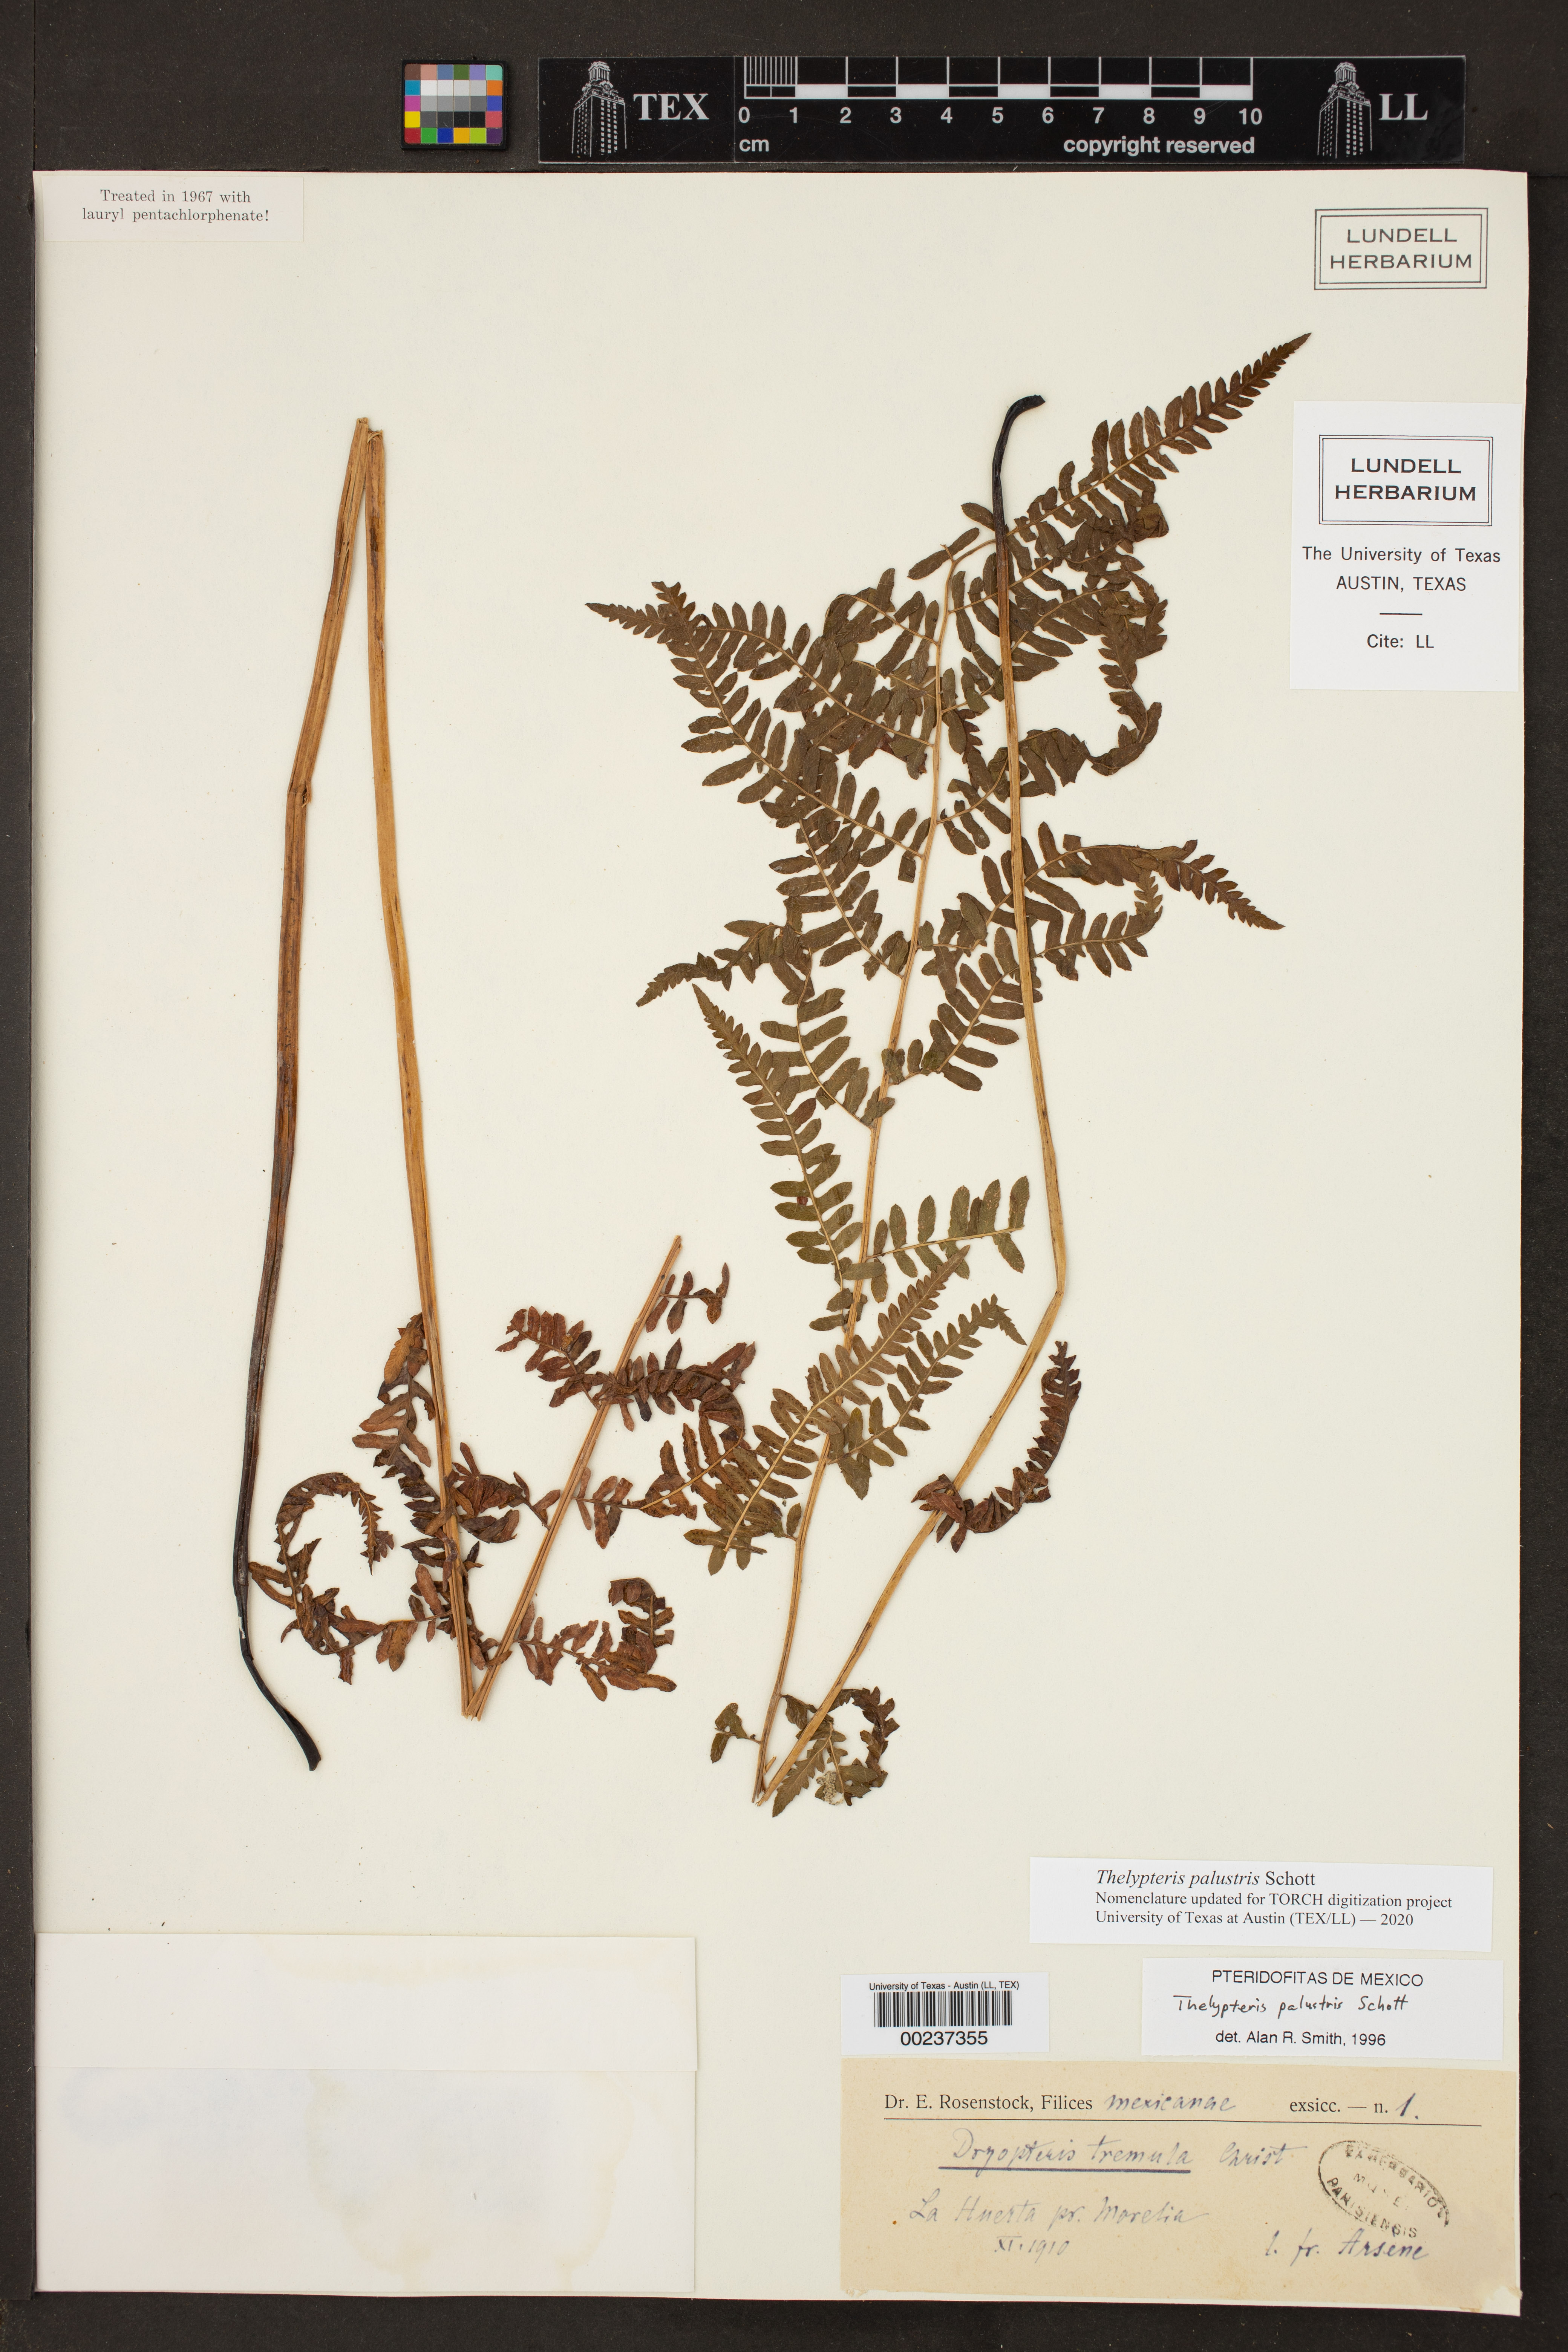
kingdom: Plantae
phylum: Tracheophyta
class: Polypodiopsida
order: Polypodiales
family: Thelypteridaceae
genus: Thelypteris
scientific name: Thelypteris palustris
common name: Marsh fern
